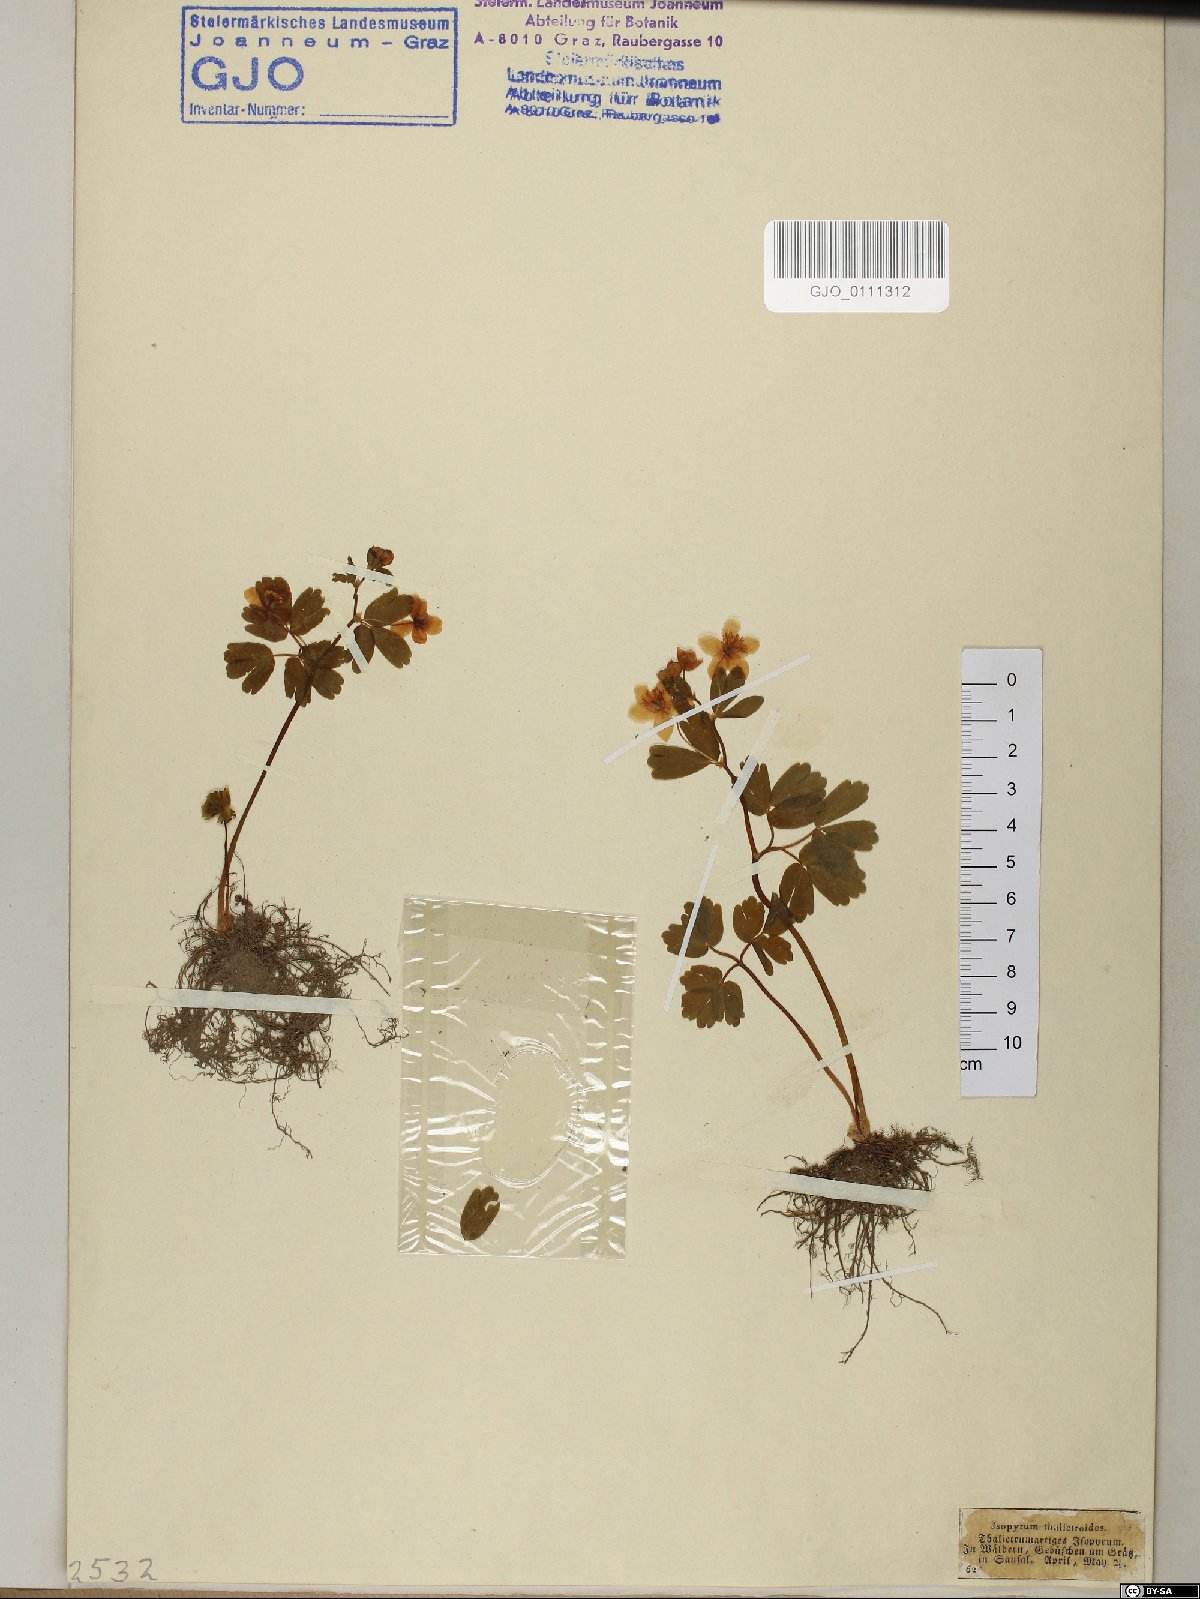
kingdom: Plantae
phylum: Tracheophyta
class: Magnoliopsida
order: Ranunculales
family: Ranunculaceae
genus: Isopyrum
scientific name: Isopyrum thalictroides
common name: Isopyrum
